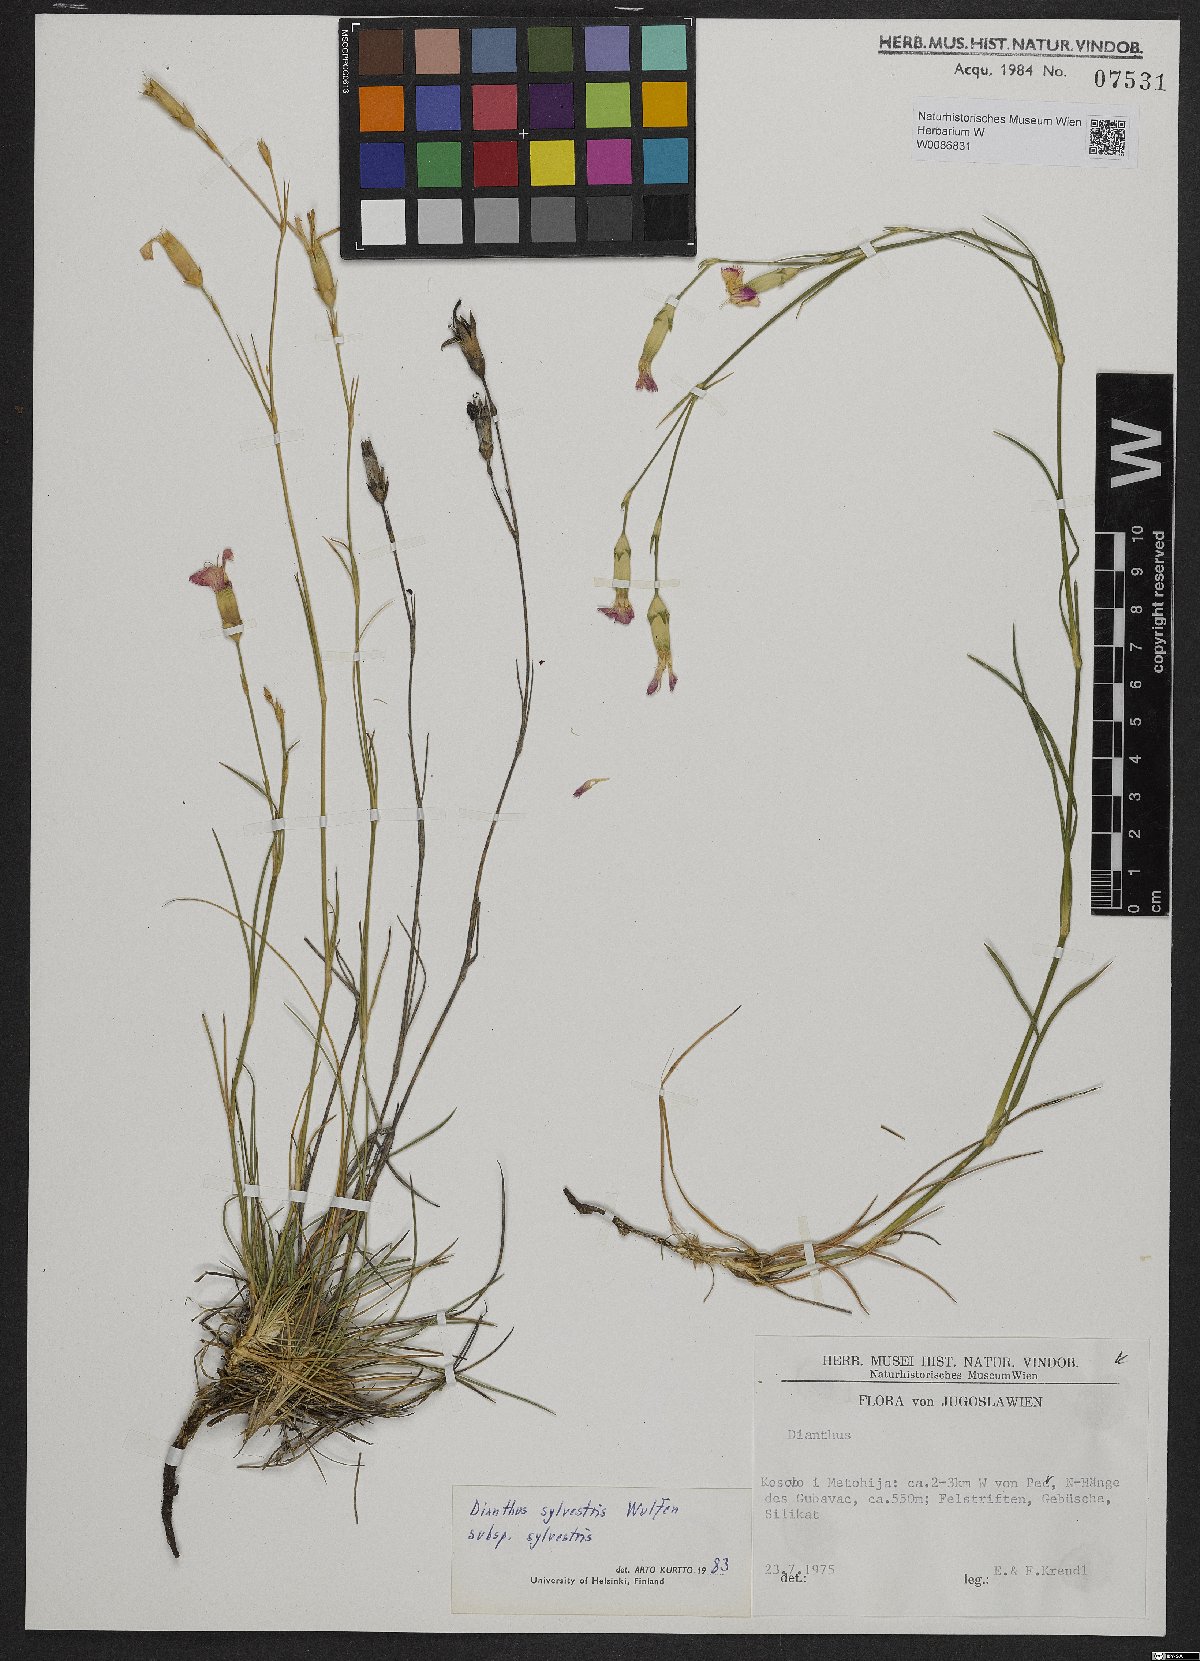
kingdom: Plantae
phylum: Tracheophyta
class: Magnoliopsida
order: Caryophyllales
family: Caryophyllaceae
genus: Dianthus
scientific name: Dianthus sylvestris
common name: Wood pink
